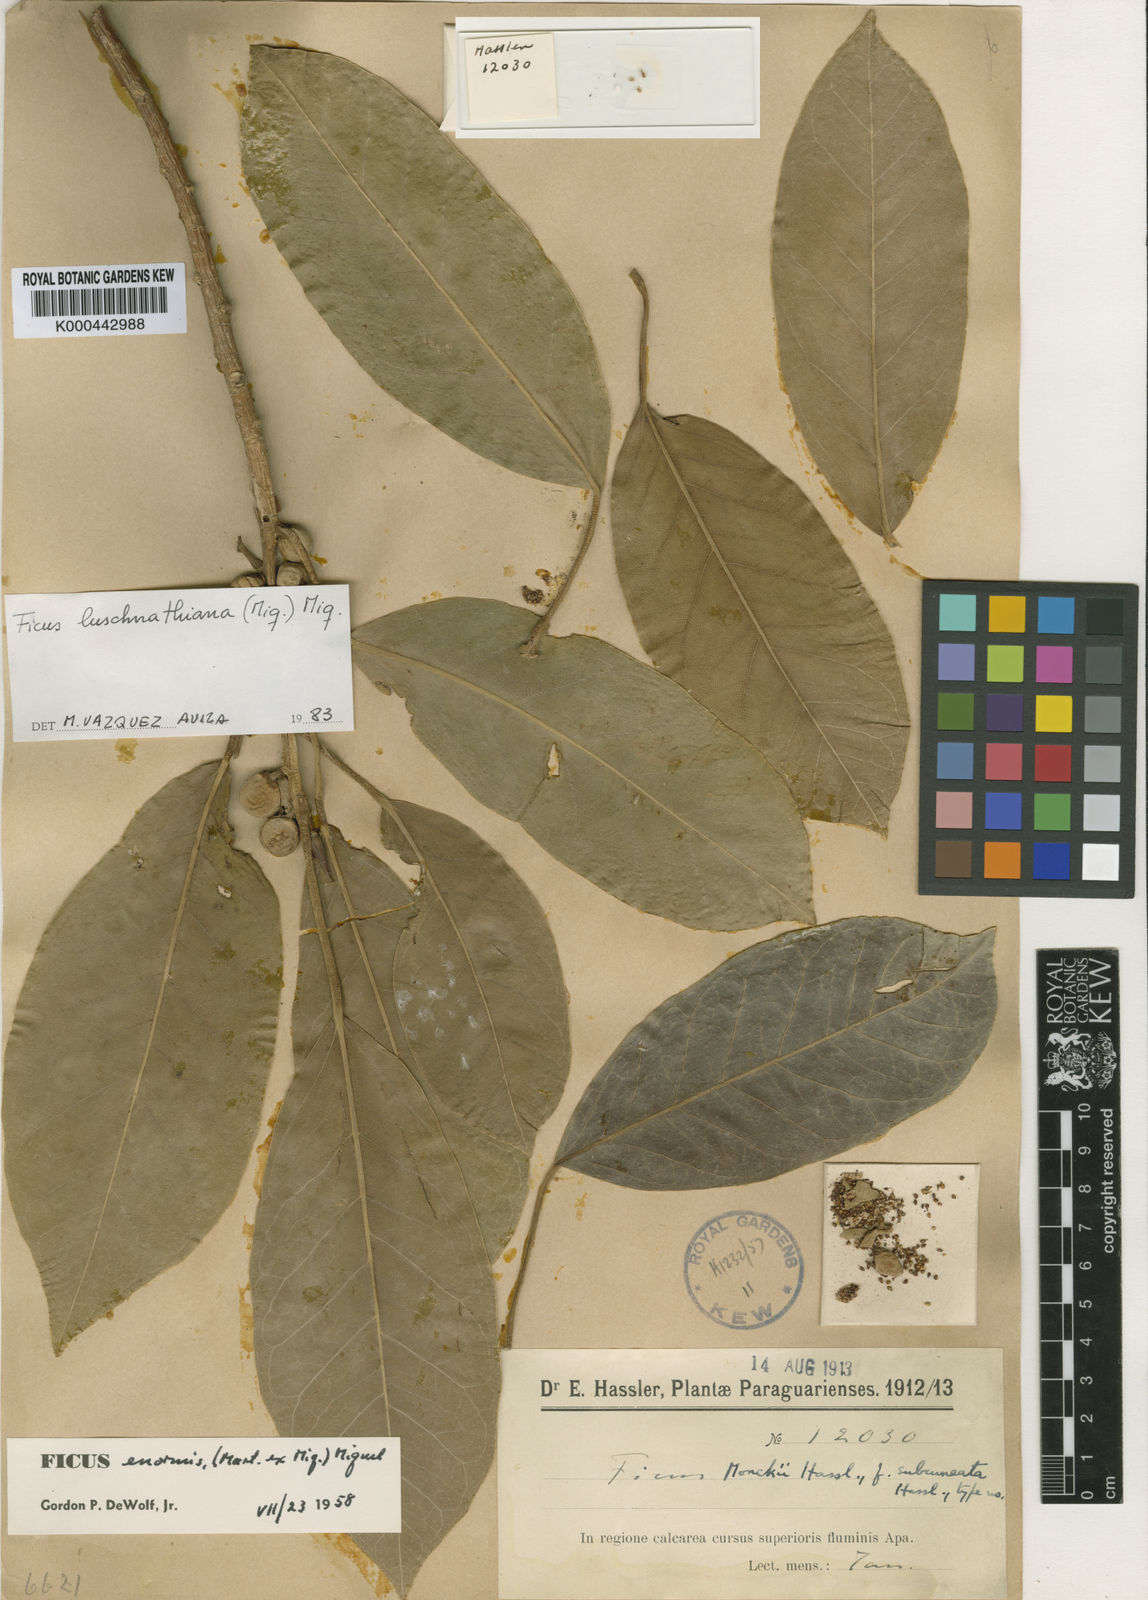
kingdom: Plantae
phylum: Tracheophyta
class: Magnoliopsida
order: Rosales
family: Moraceae
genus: Ficus
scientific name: Ficus luschnathiana
